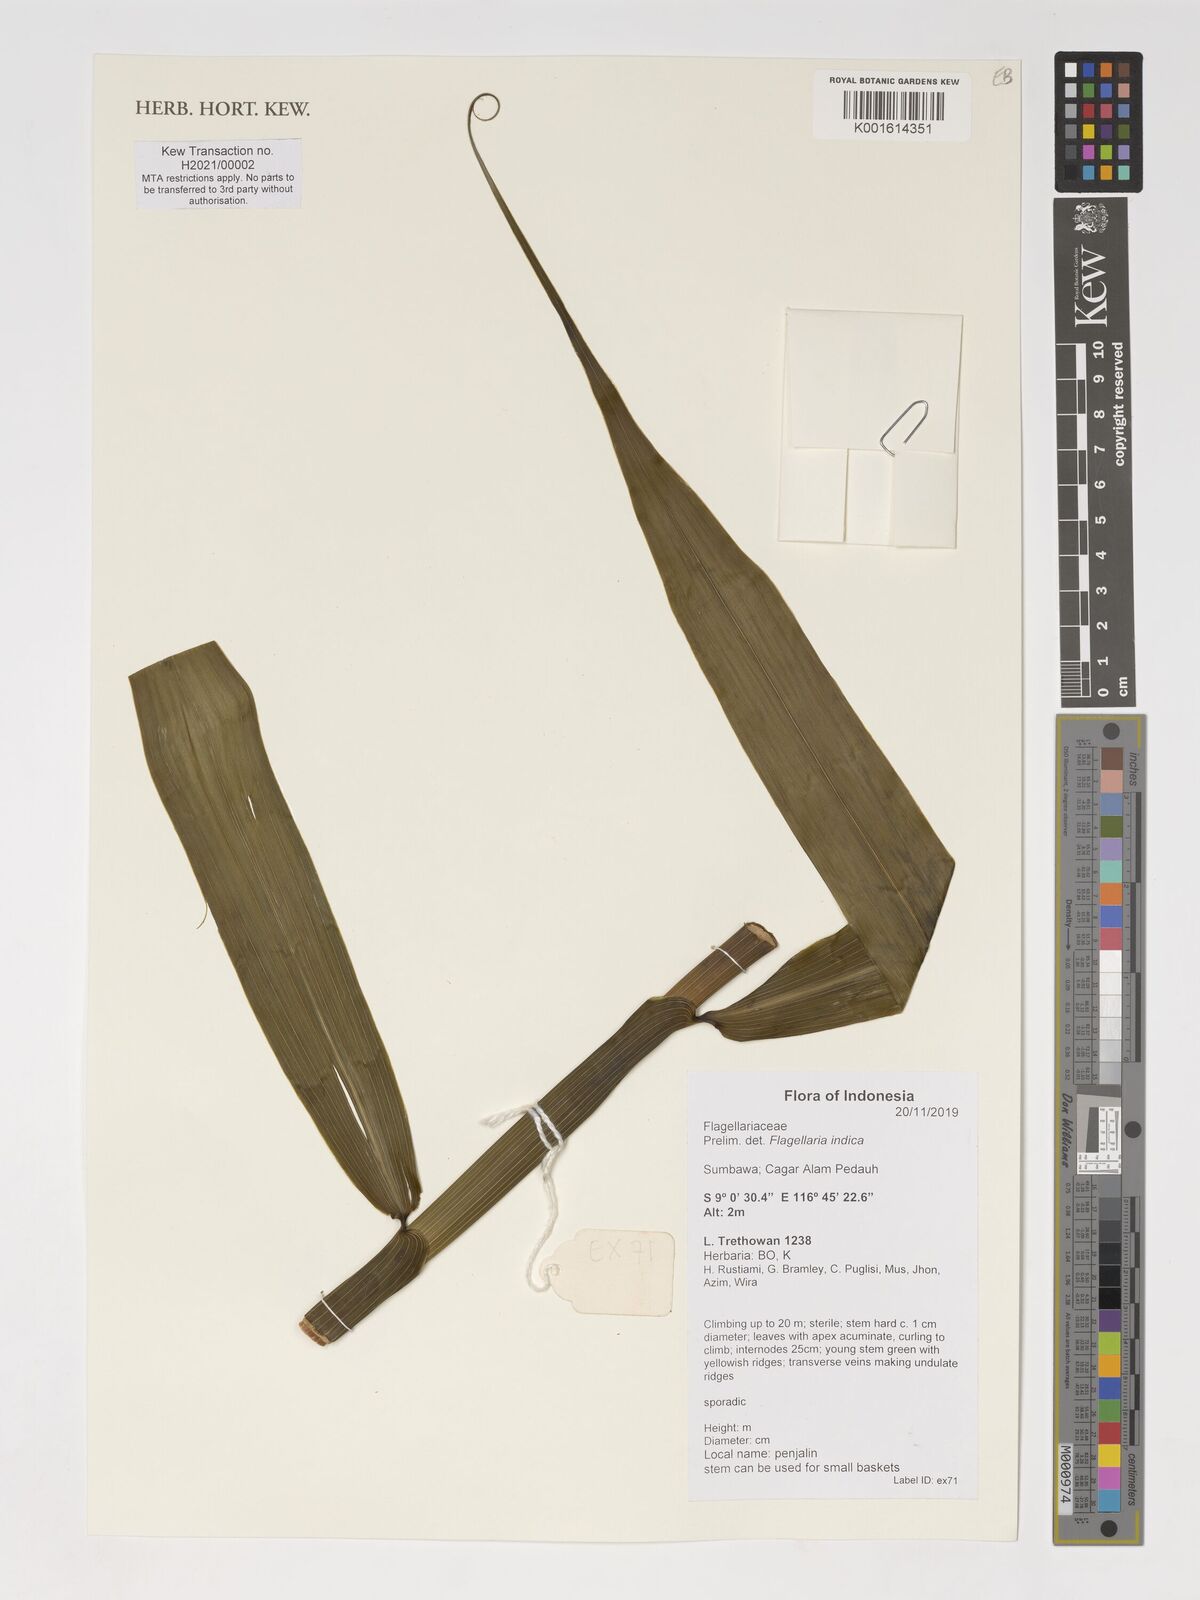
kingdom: Plantae
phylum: Tracheophyta
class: Liliopsida
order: Poales
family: Flagellariaceae
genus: Flagellaria
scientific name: Flagellaria indica
